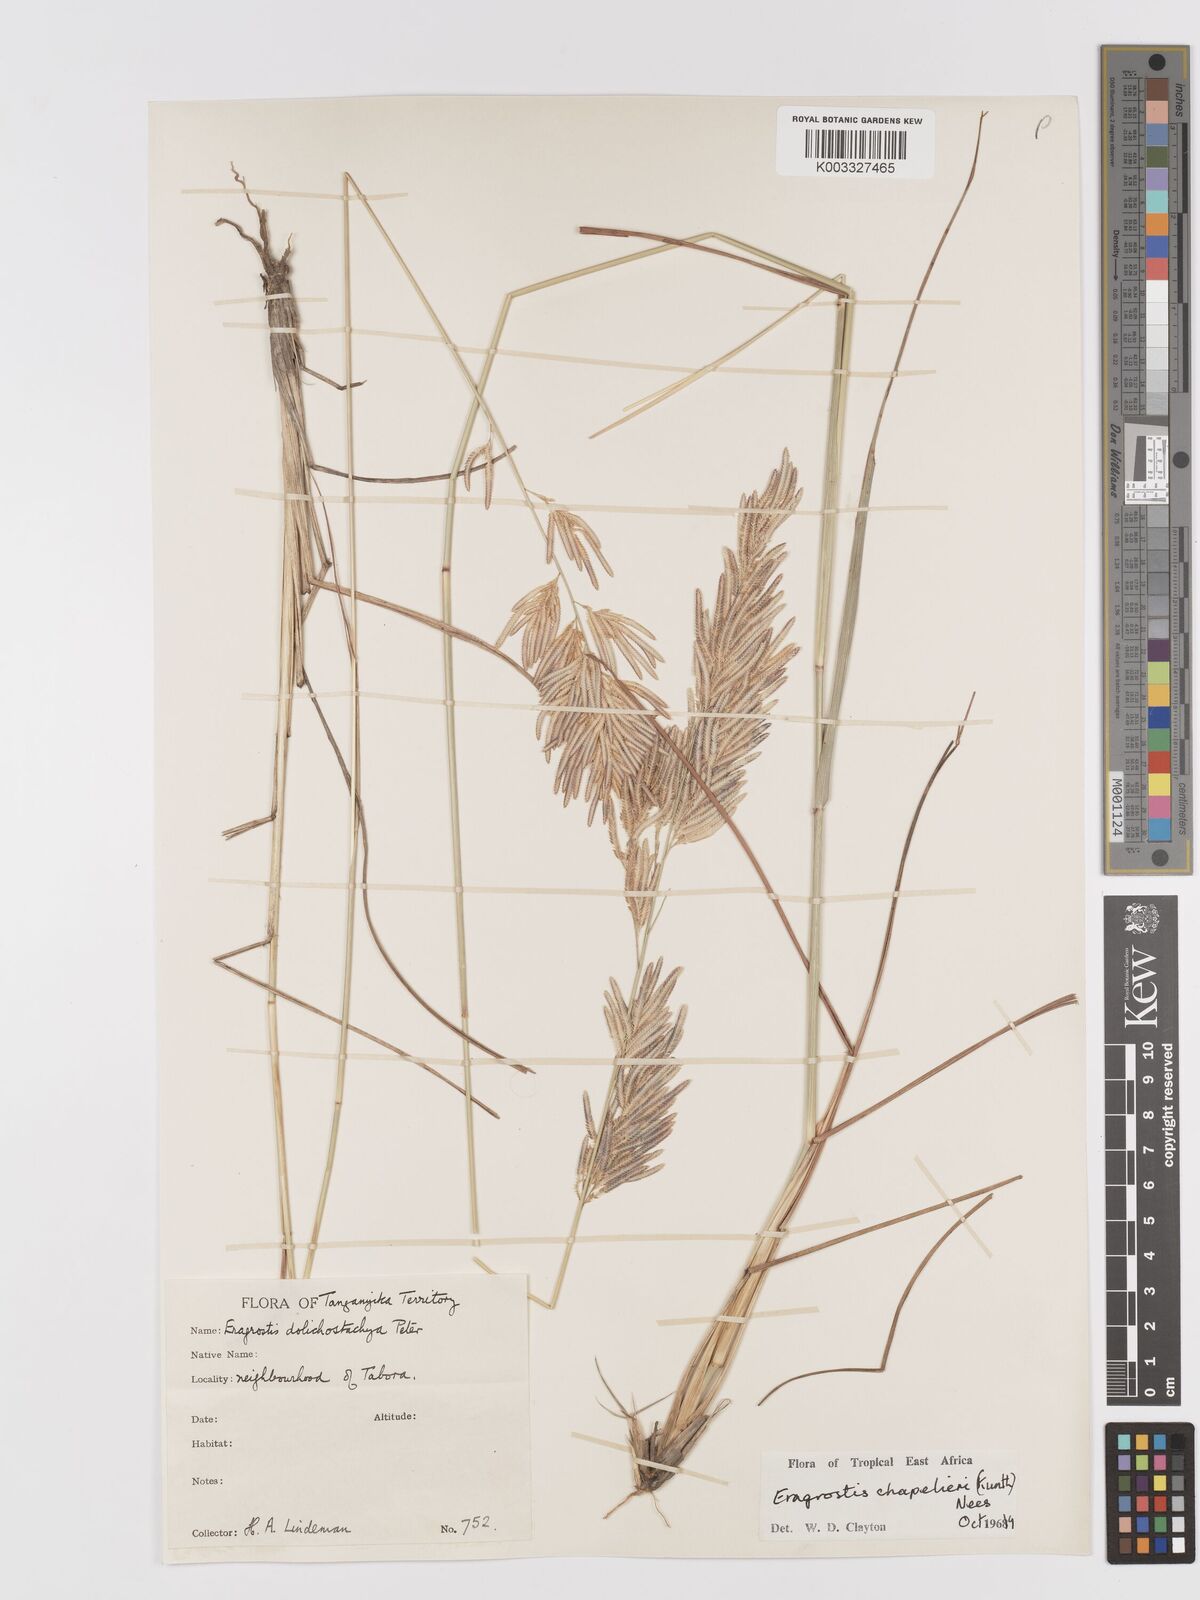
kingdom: Plantae
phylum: Tracheophyta
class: Liliopsida
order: Poales
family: Poaceae
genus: Eragrostis
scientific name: Eragrostis chapelieri
